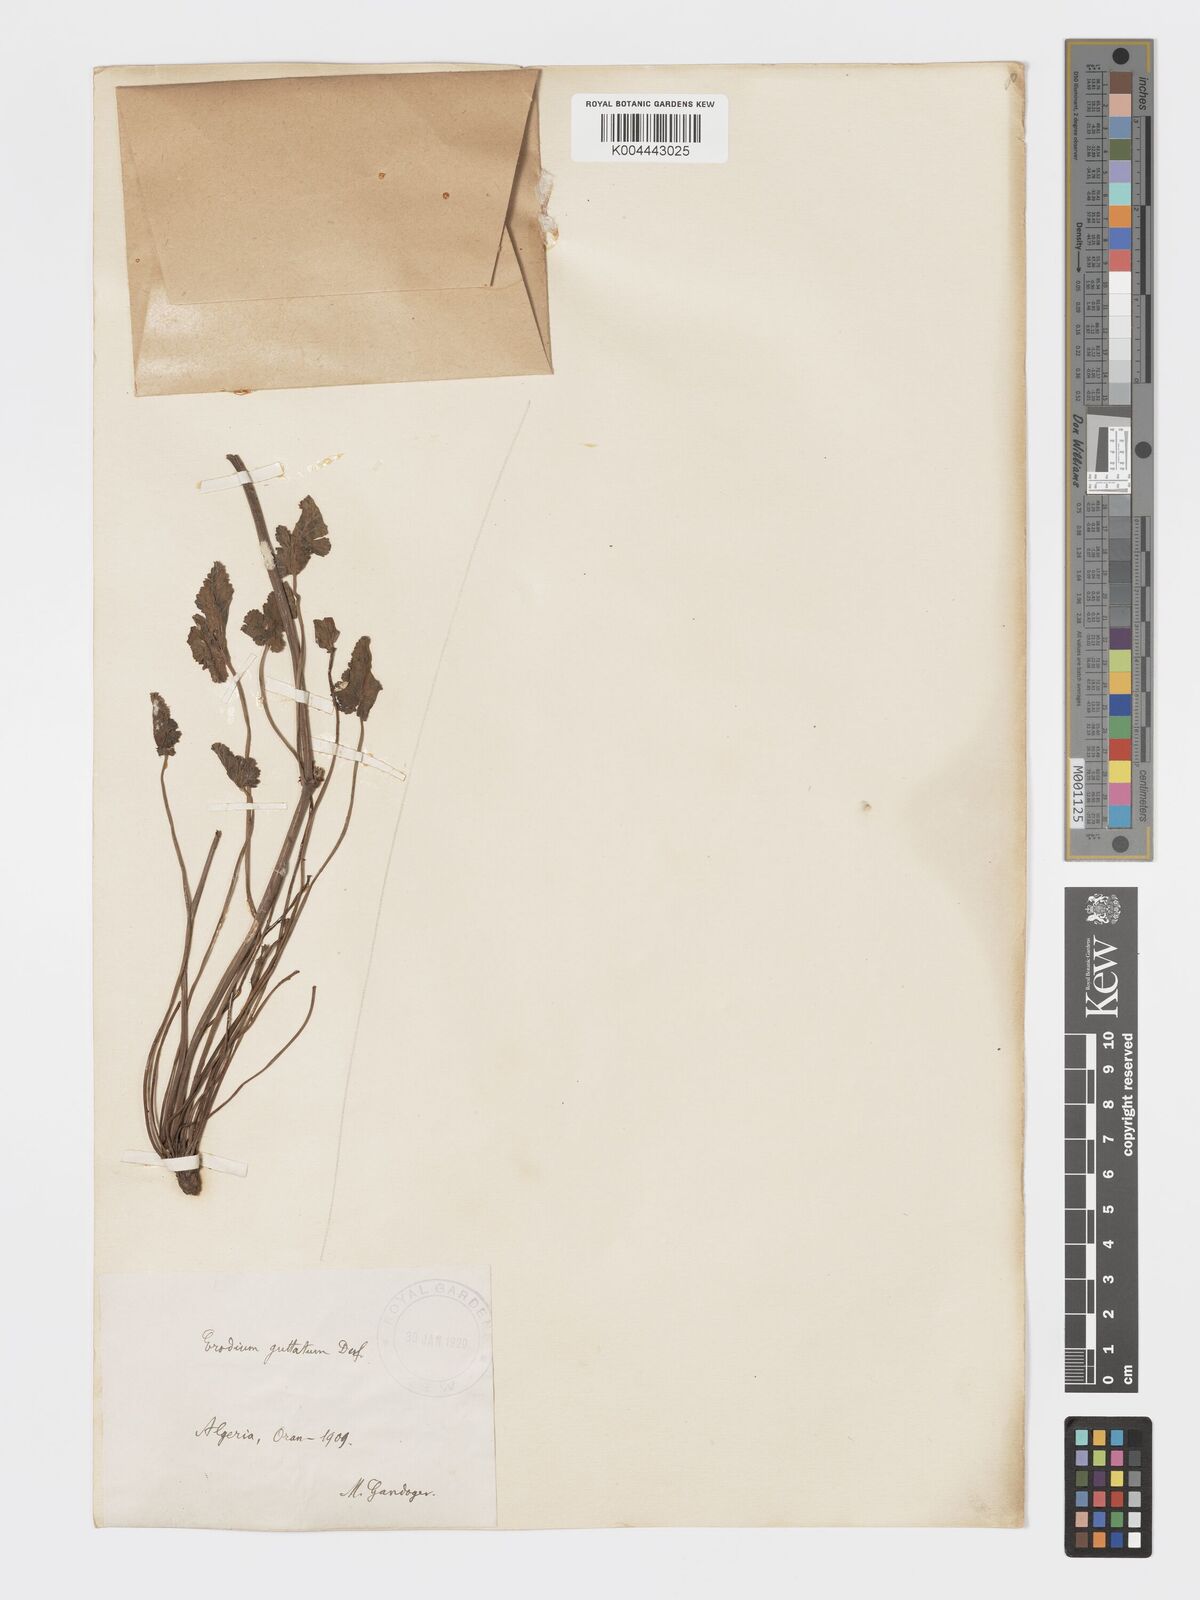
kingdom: Plantae
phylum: Tracheophyta
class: Magnoliopsida
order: Geraniales
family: Geraniaceae
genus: Erodium
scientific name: Erodium guttatum
